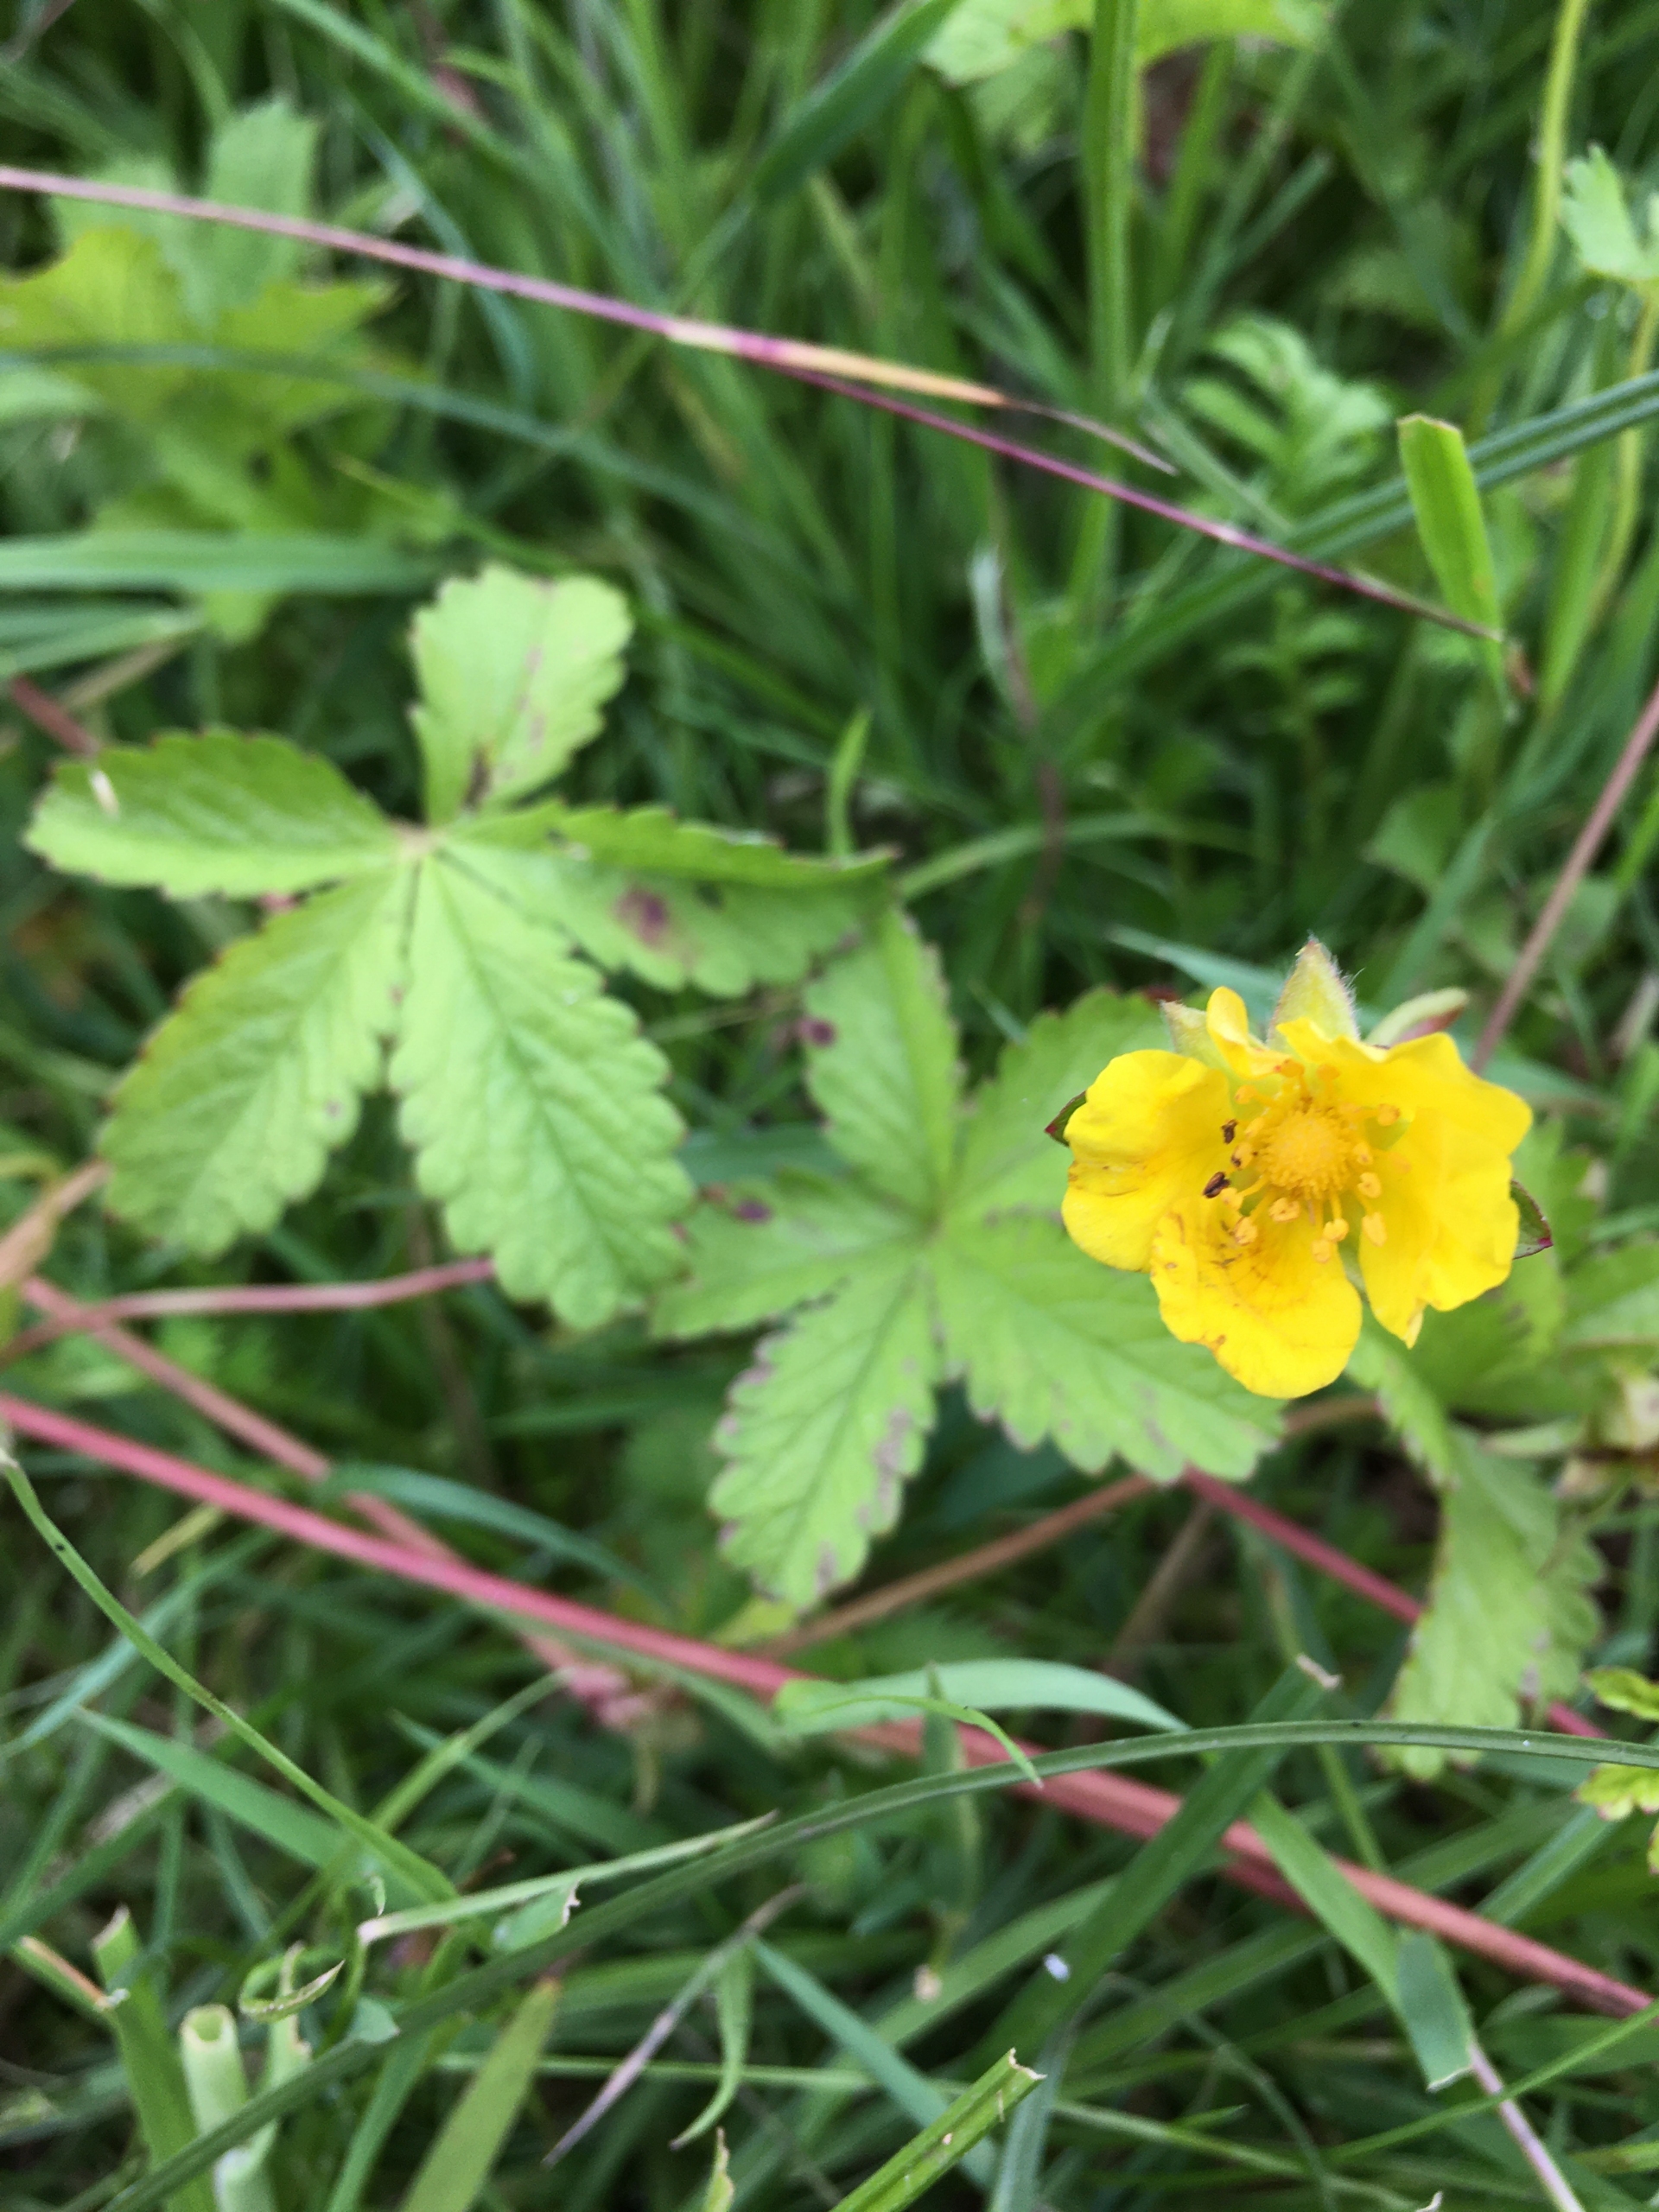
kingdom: Plantae
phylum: Tracheophyta
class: Magnoliopsida
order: Rosales
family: Rosaceae
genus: Potentilla
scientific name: Potentilla reptans
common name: Krybende potentil
